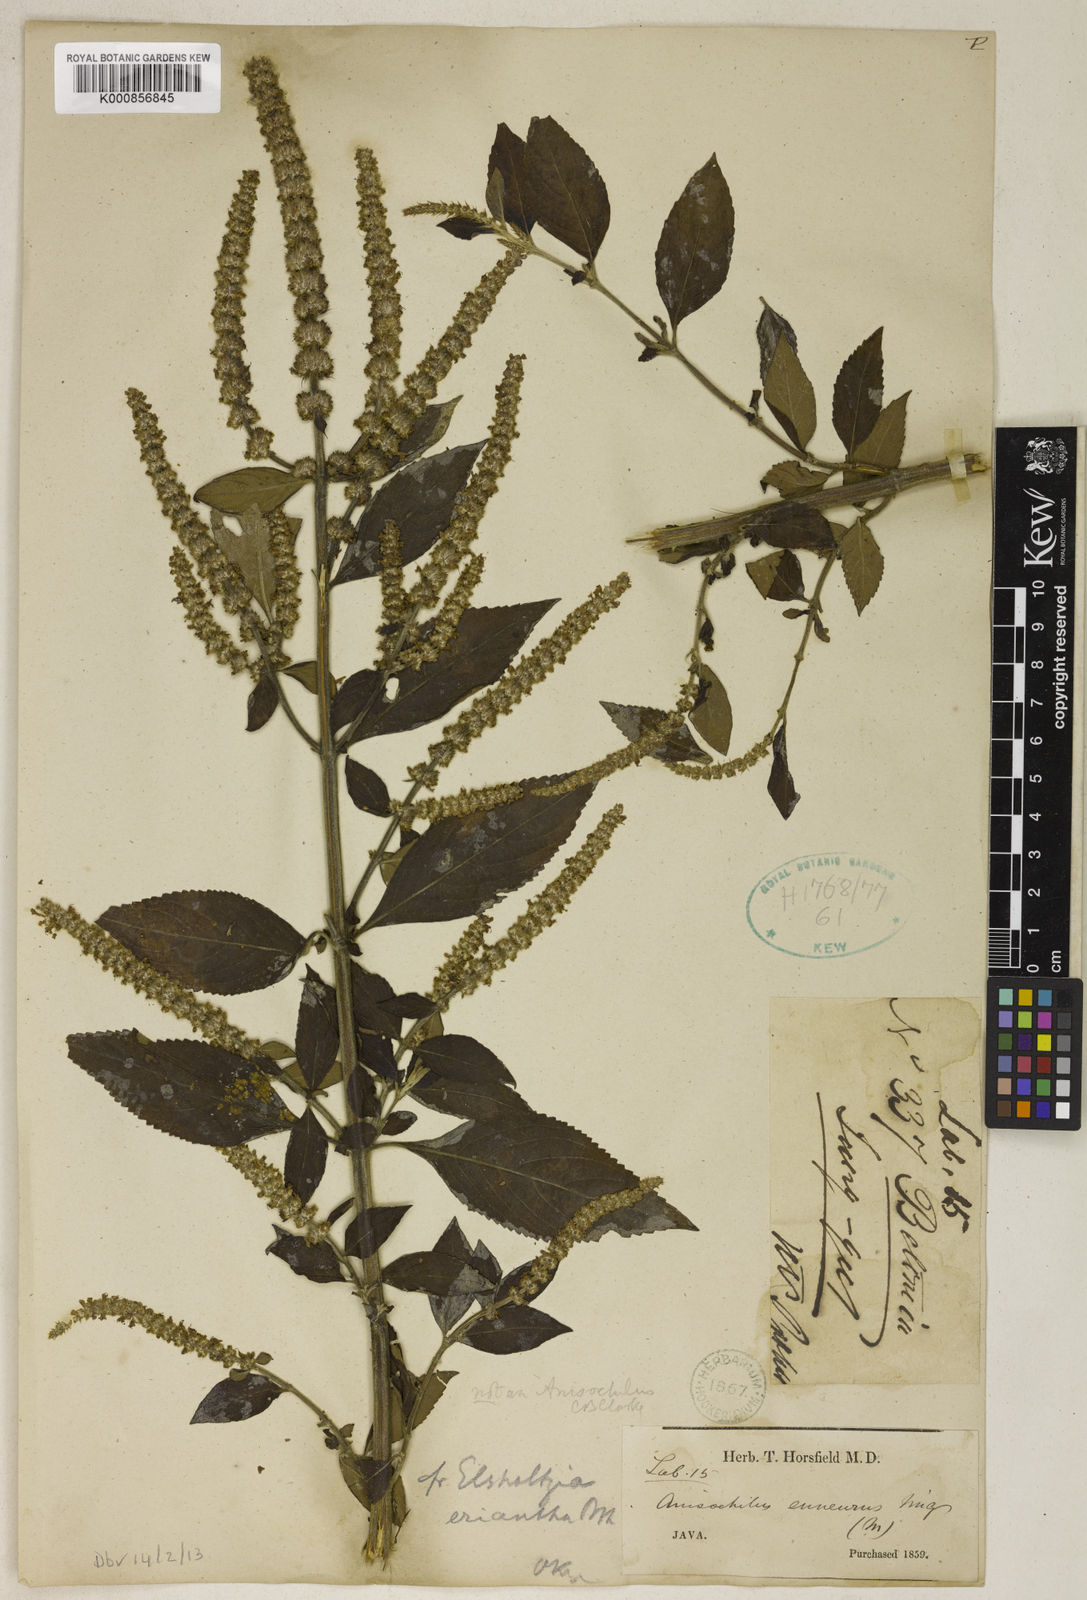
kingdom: Plantae
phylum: Tracheophyta
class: Magnoliopsida
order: Lamiales
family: Lamiaceae
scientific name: Lamiaceae
